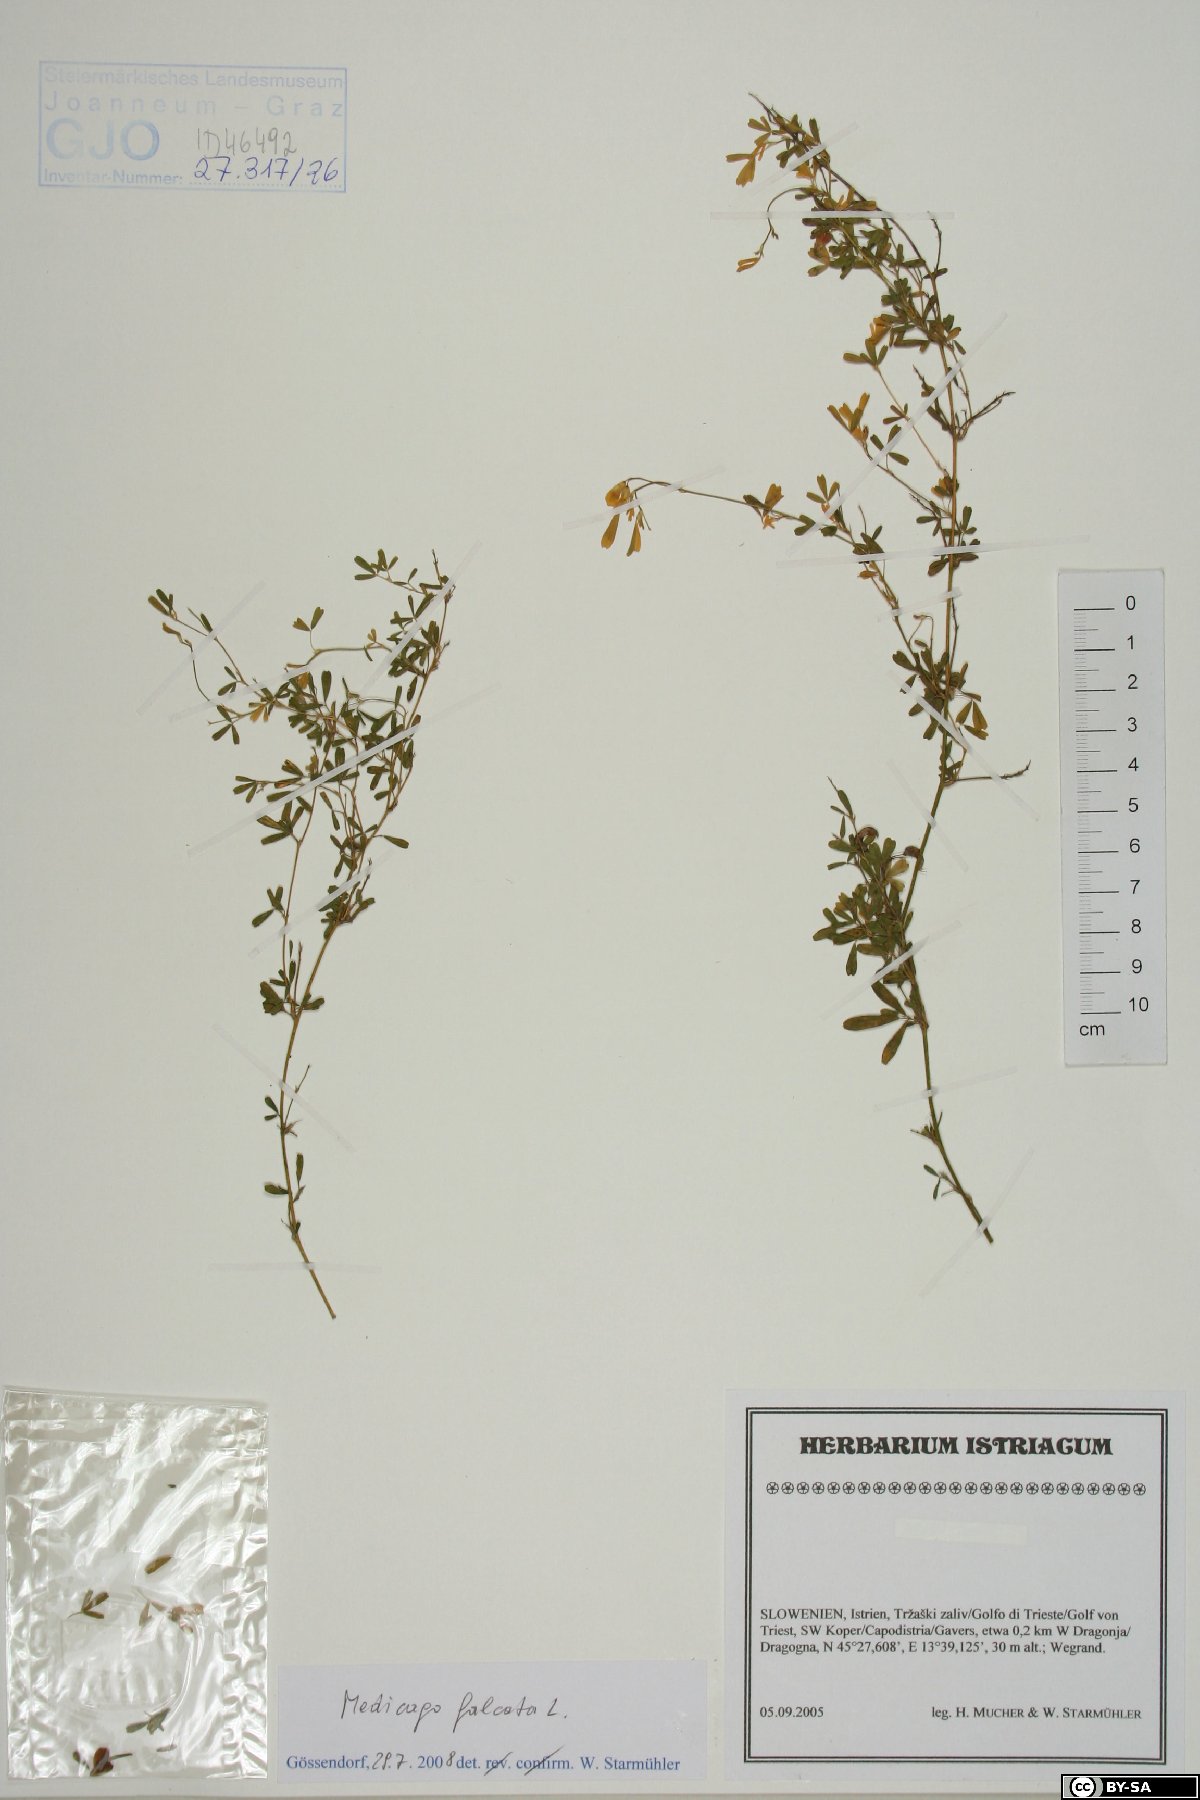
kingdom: Plantae
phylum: Tracheophyta
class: Magnoliopsida
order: Fabales
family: Fabaceae
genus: Medicago
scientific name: Medicago falcata
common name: Sickle medick
